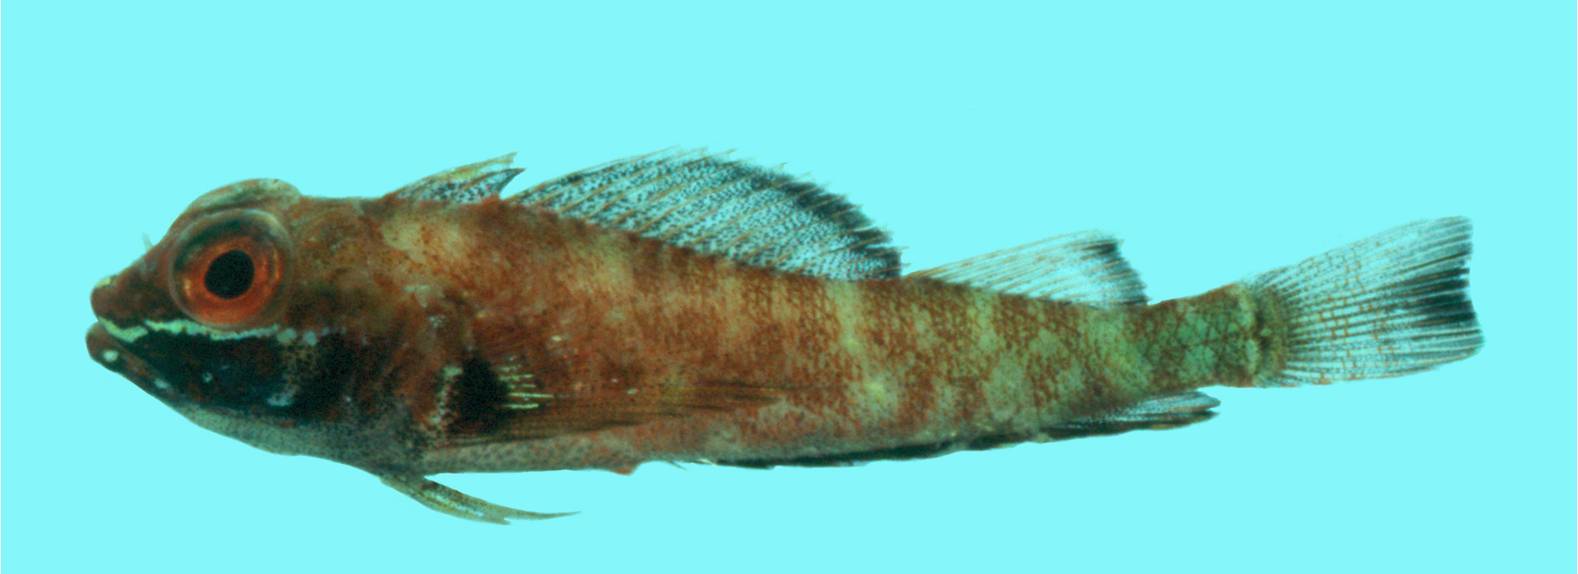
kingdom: Animalia
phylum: Chordata
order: Perciformes
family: Tripterygiidae
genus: Helcogramma
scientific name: Helcogramma fuscopinna
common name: Blackfin triplefin
